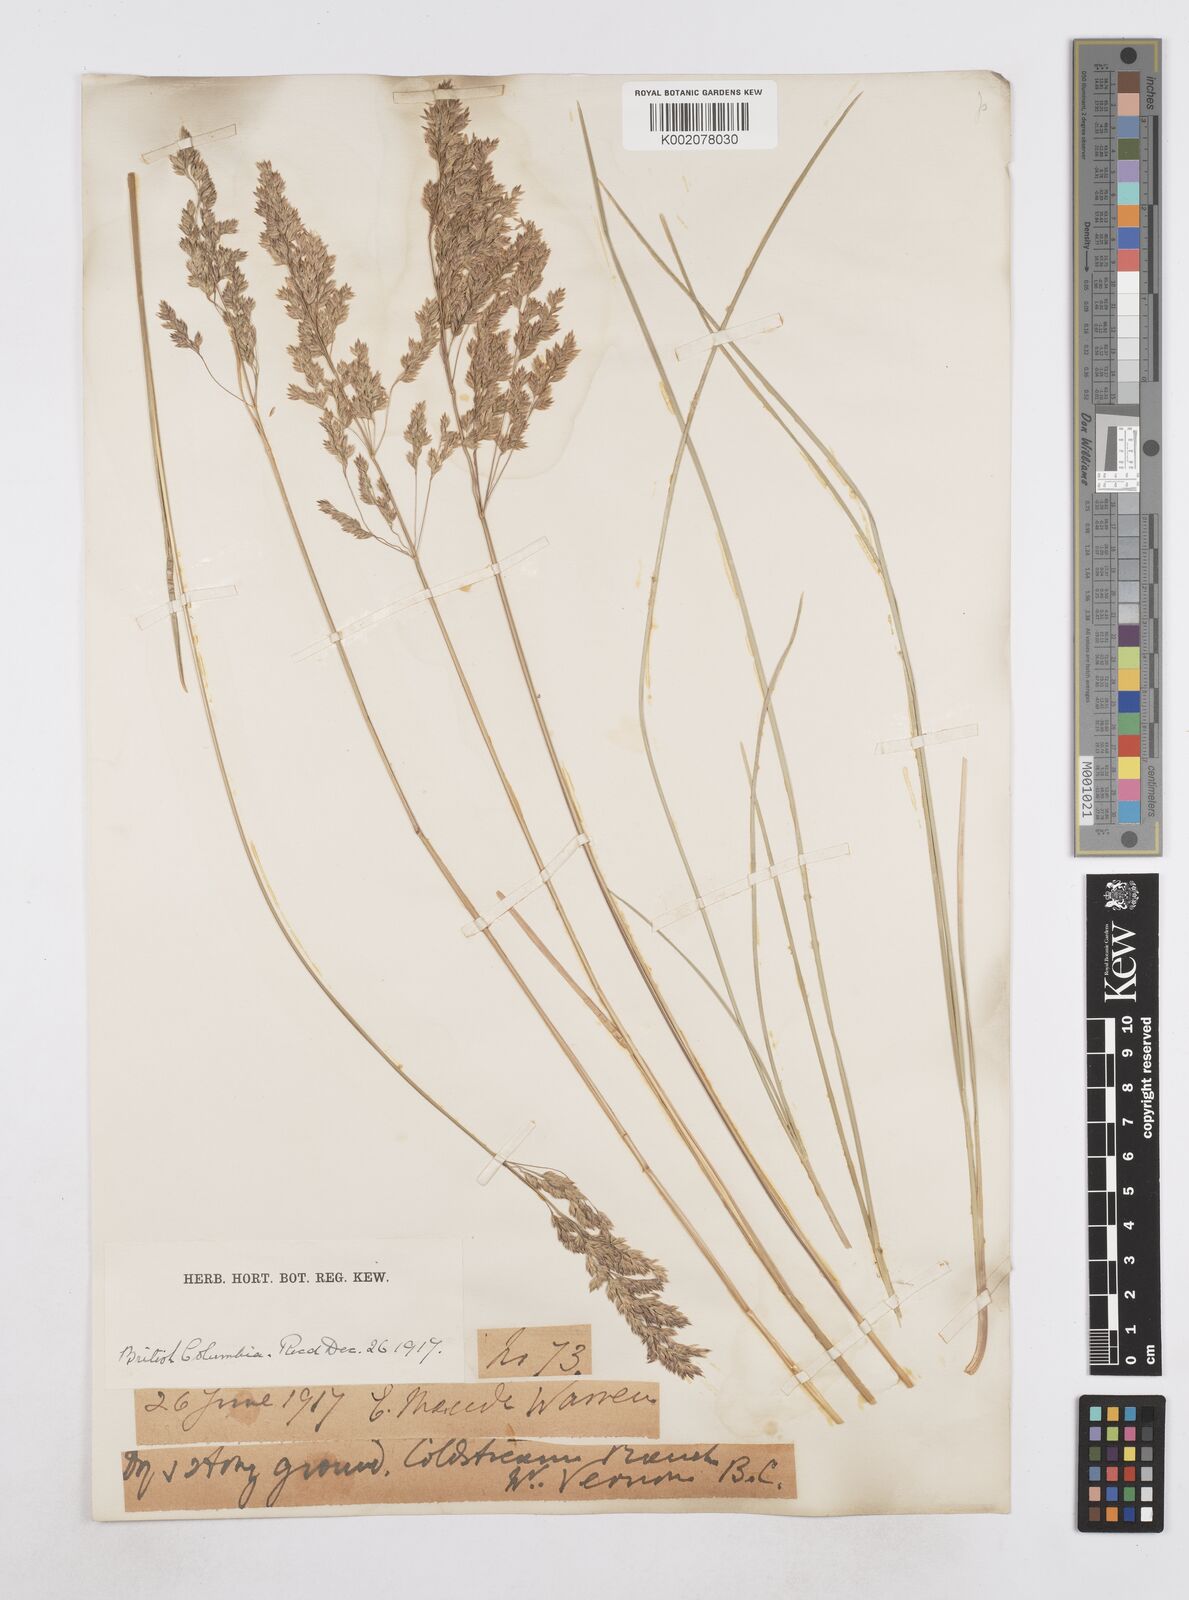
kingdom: Plantae
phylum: Tracheophyta
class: Liliopsida
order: Poales
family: Poaceae
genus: Poa
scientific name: Poa
